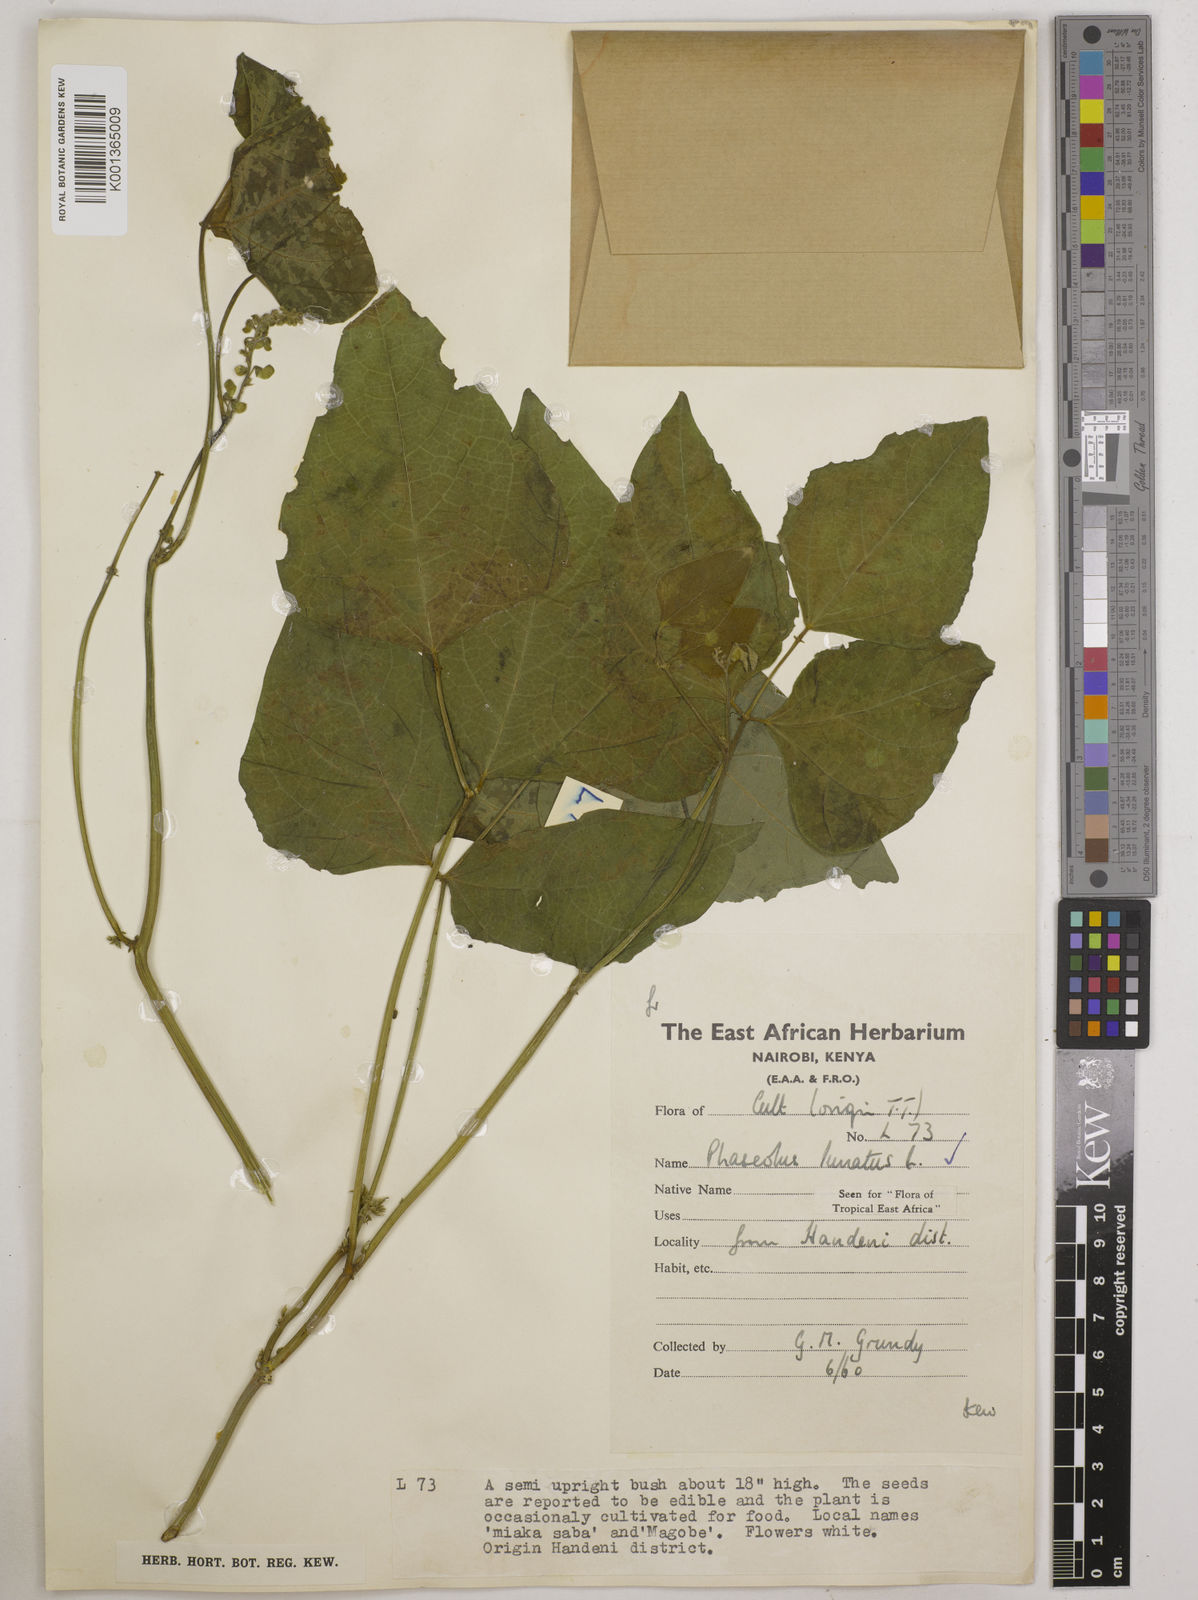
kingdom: Plantae
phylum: Tracheophyta
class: Magnoliopsida
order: Fabales
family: Fabaceae
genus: Phaseolus
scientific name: Phaseolus lunatus
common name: Sieva bean
